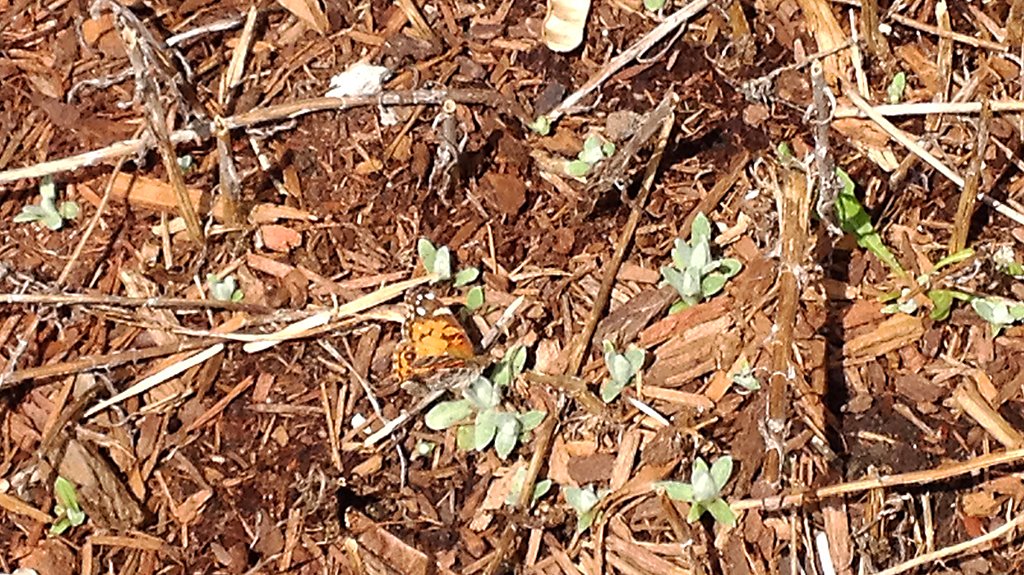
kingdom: Animalia
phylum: Arthropoda
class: Insecta
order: Lepidoptera
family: Nymphalidae
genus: Vanessa
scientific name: Vanessa virginiensis
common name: American Lady
